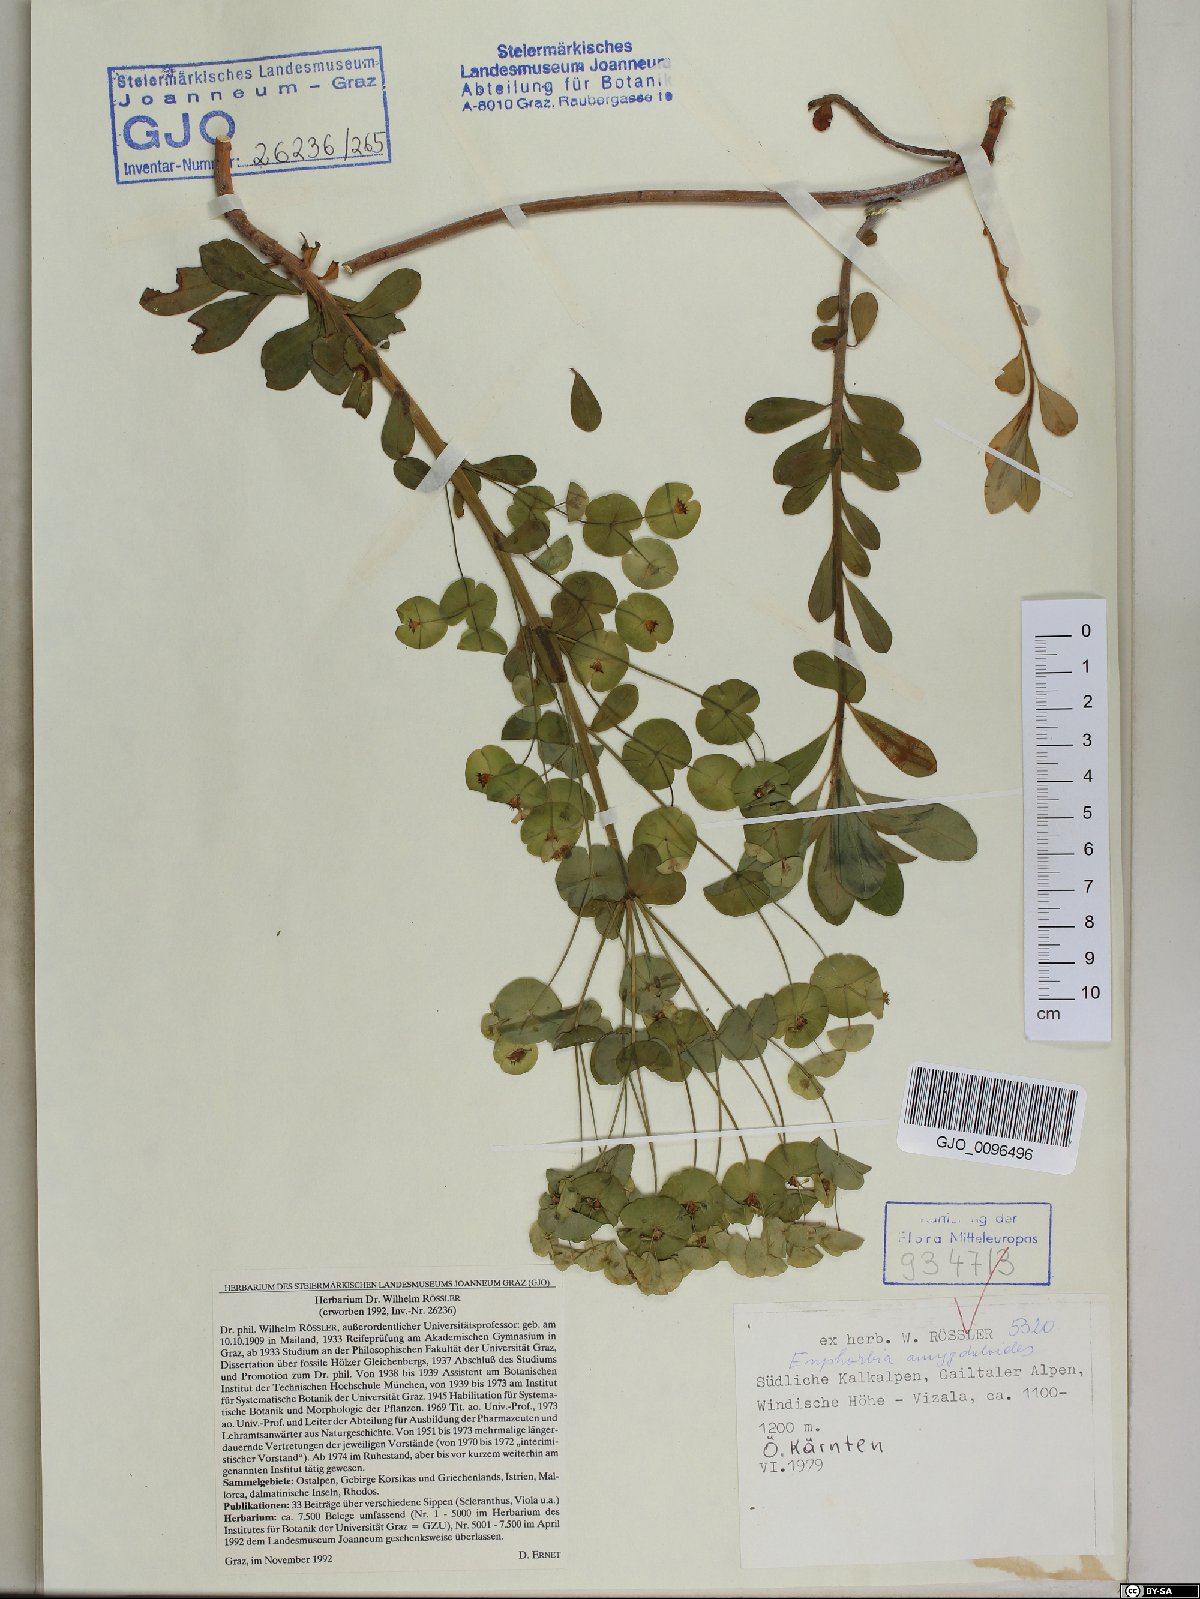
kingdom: Plantae
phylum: Tracheophyta
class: Magnoliopsida
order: Malpighiales
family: Euphorbiaceae
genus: Euphorbia
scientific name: Euphorbia amygdaloides
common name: Wood spurge
